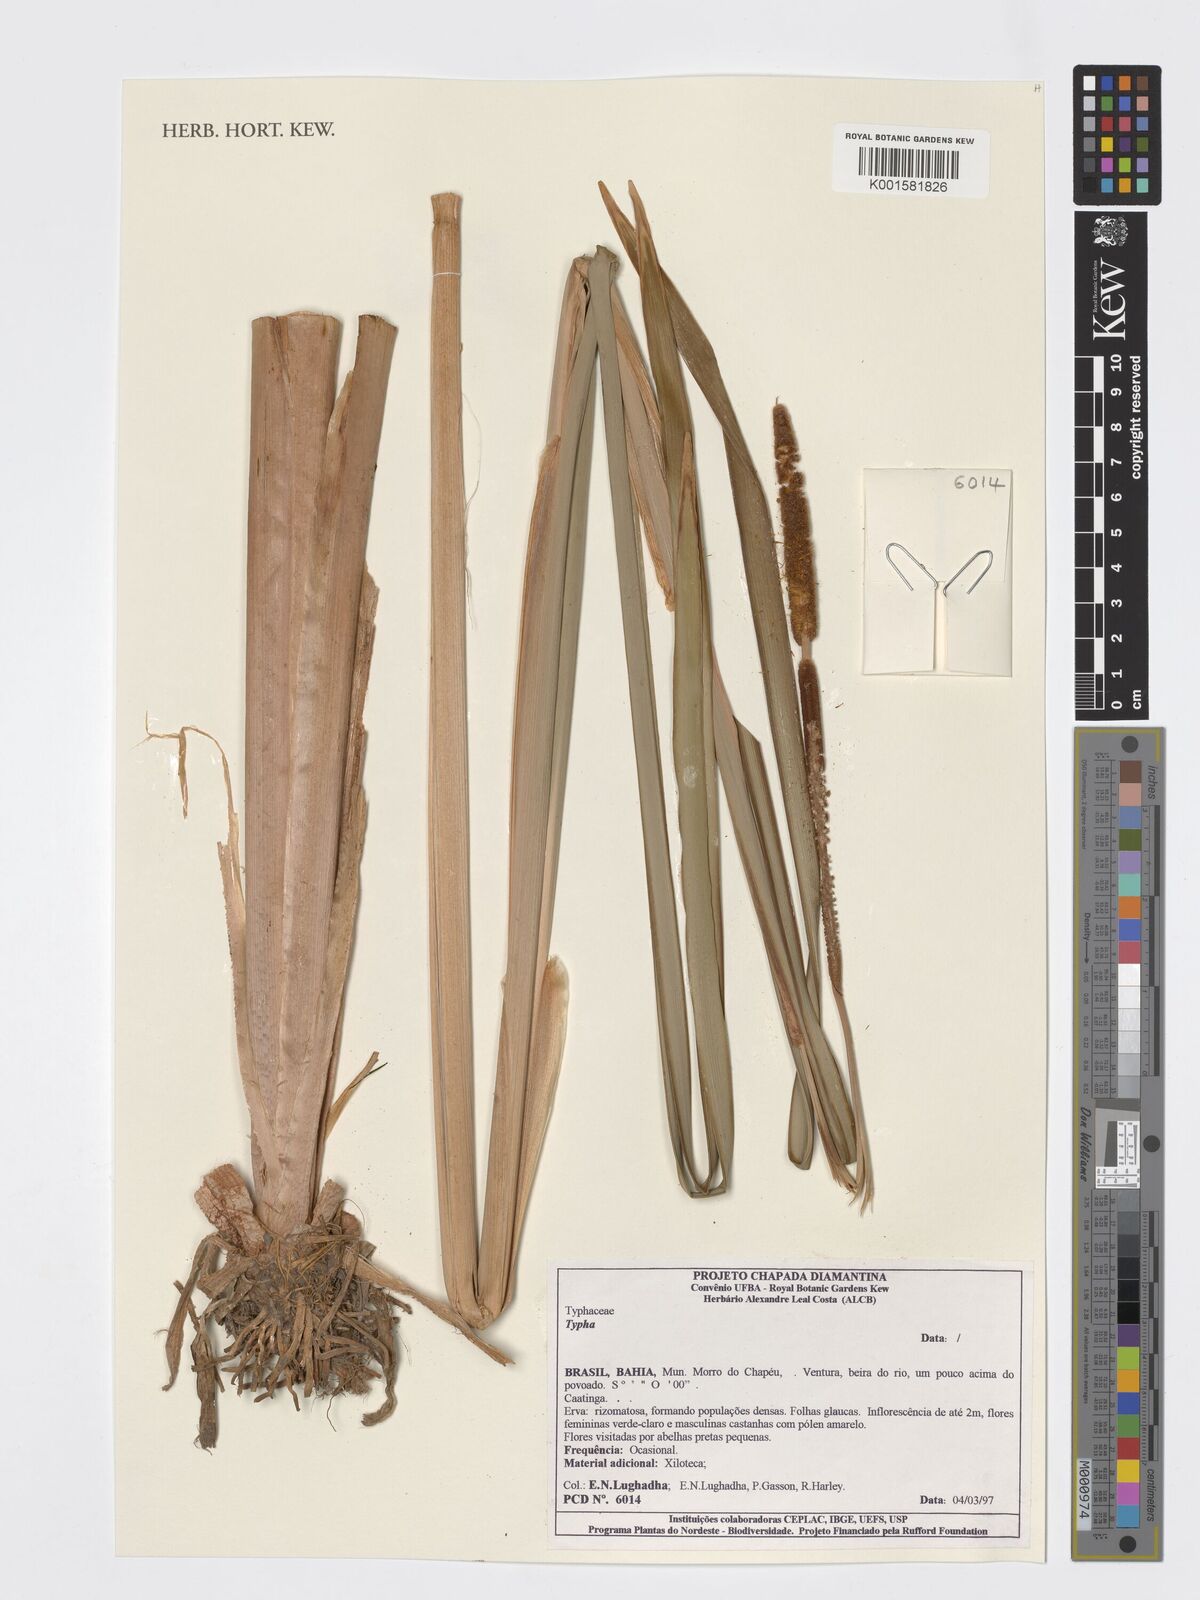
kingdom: Plantae
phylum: Tracheophyta
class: Liliopsida
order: Poales
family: Typhaceae
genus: Typha
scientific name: Typha
